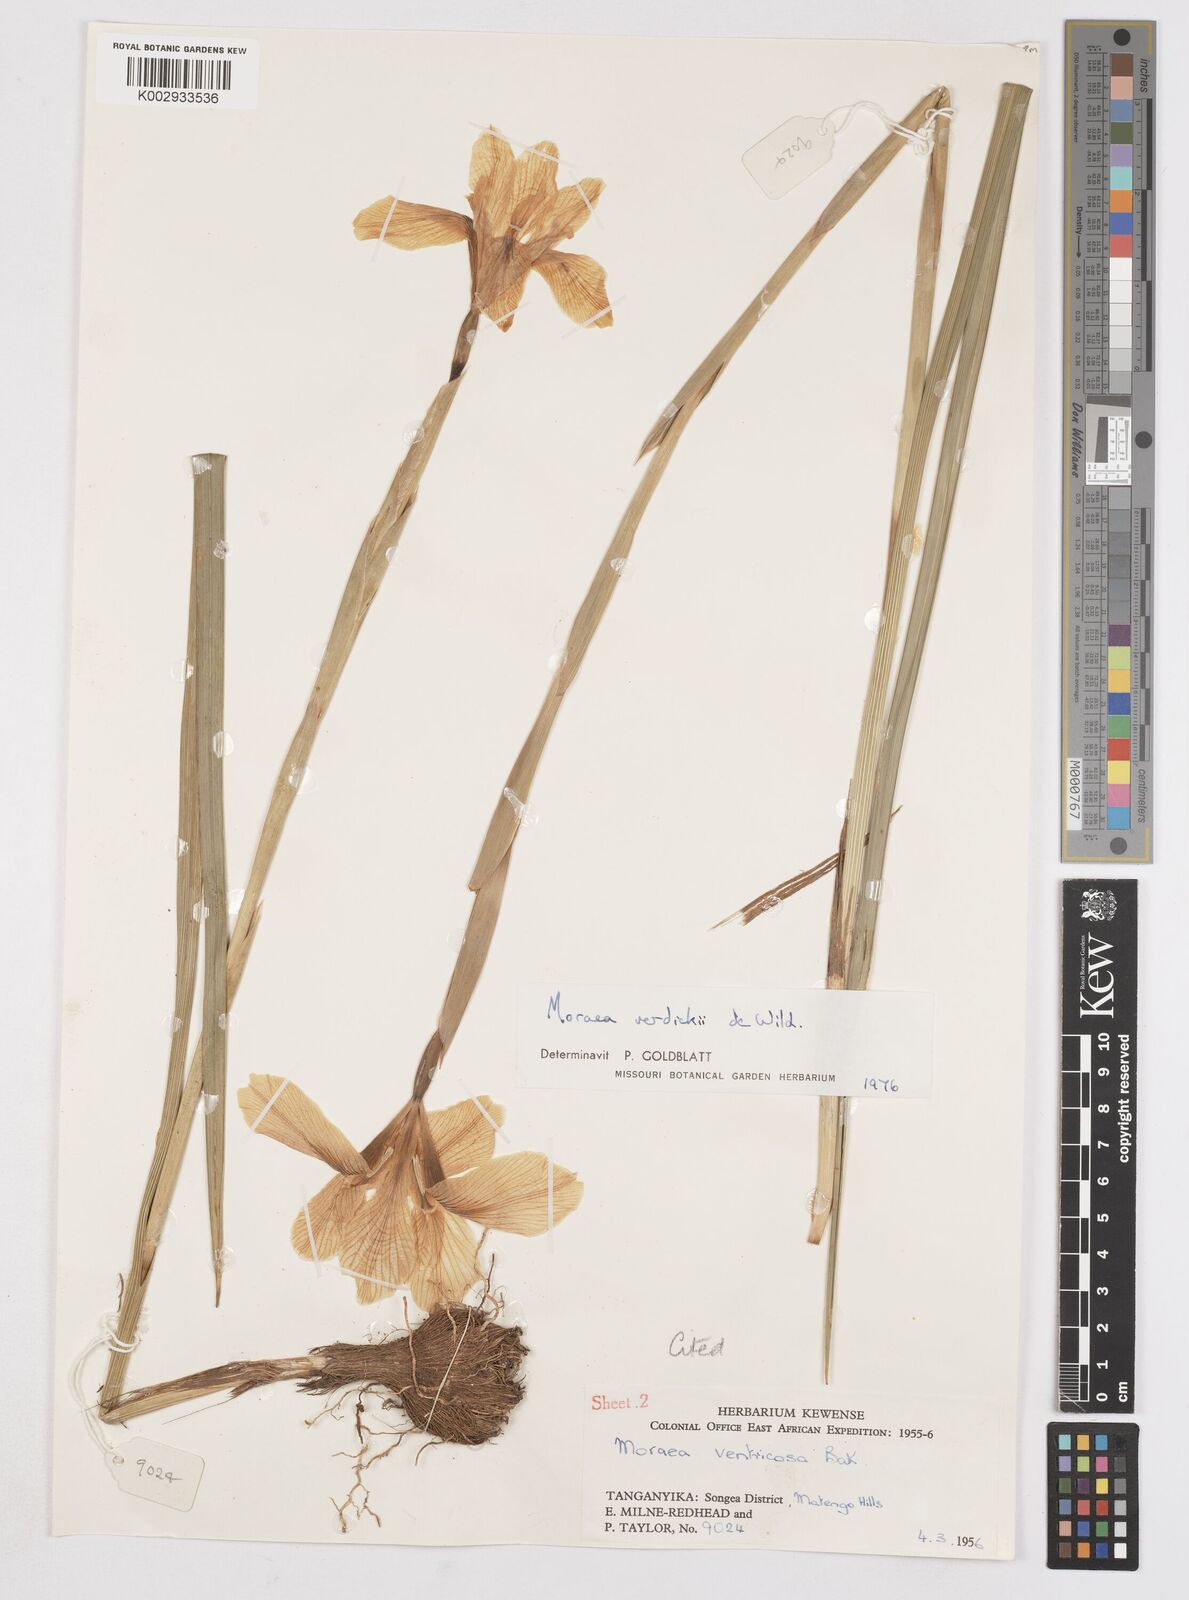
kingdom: Plantae
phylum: Tracheophyta
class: Liliopsida
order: Asparagales
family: Iridaceae
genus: Moraea
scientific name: Moraea verdickii
